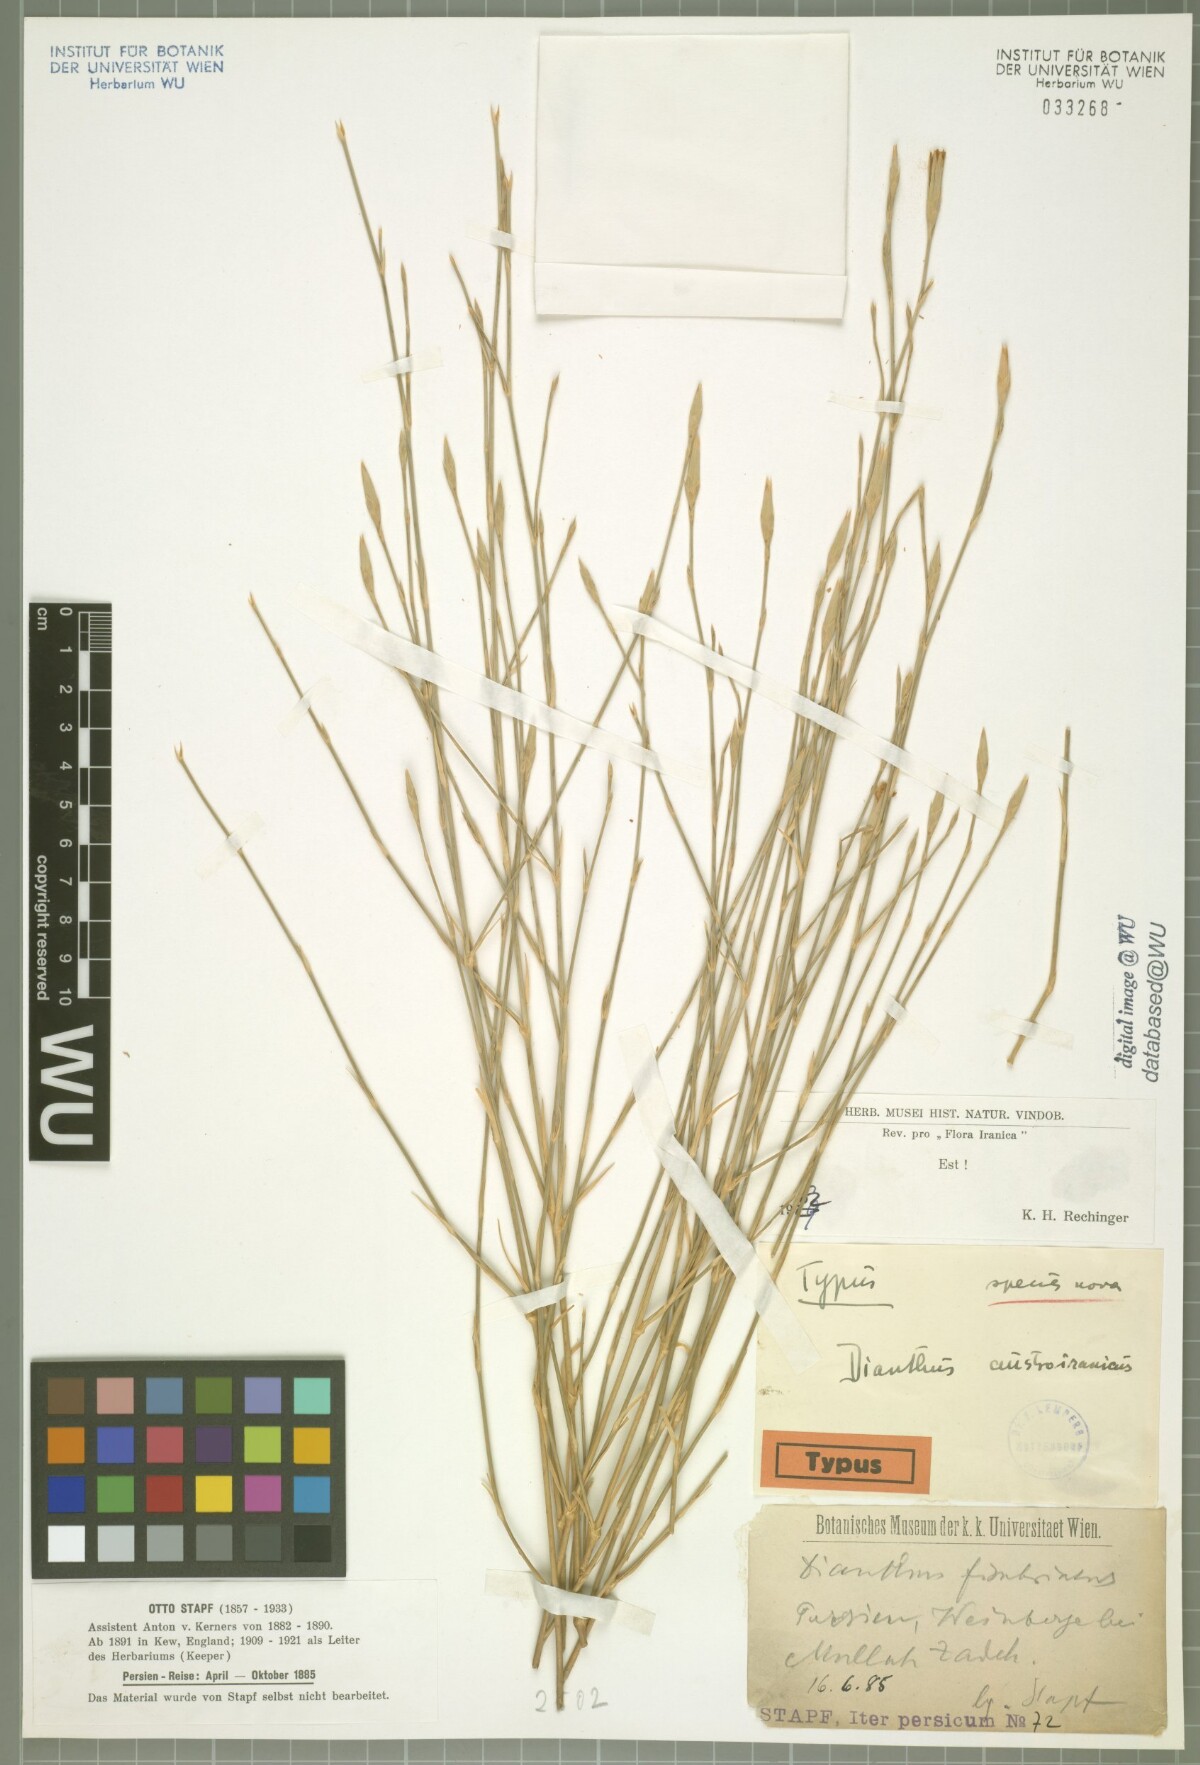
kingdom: Plantae
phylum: Tracheophyta
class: Magnoliopsida
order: Caryophyllales
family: Caryophyllaceae
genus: Dianthus
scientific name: Dianthus austroiranicus
